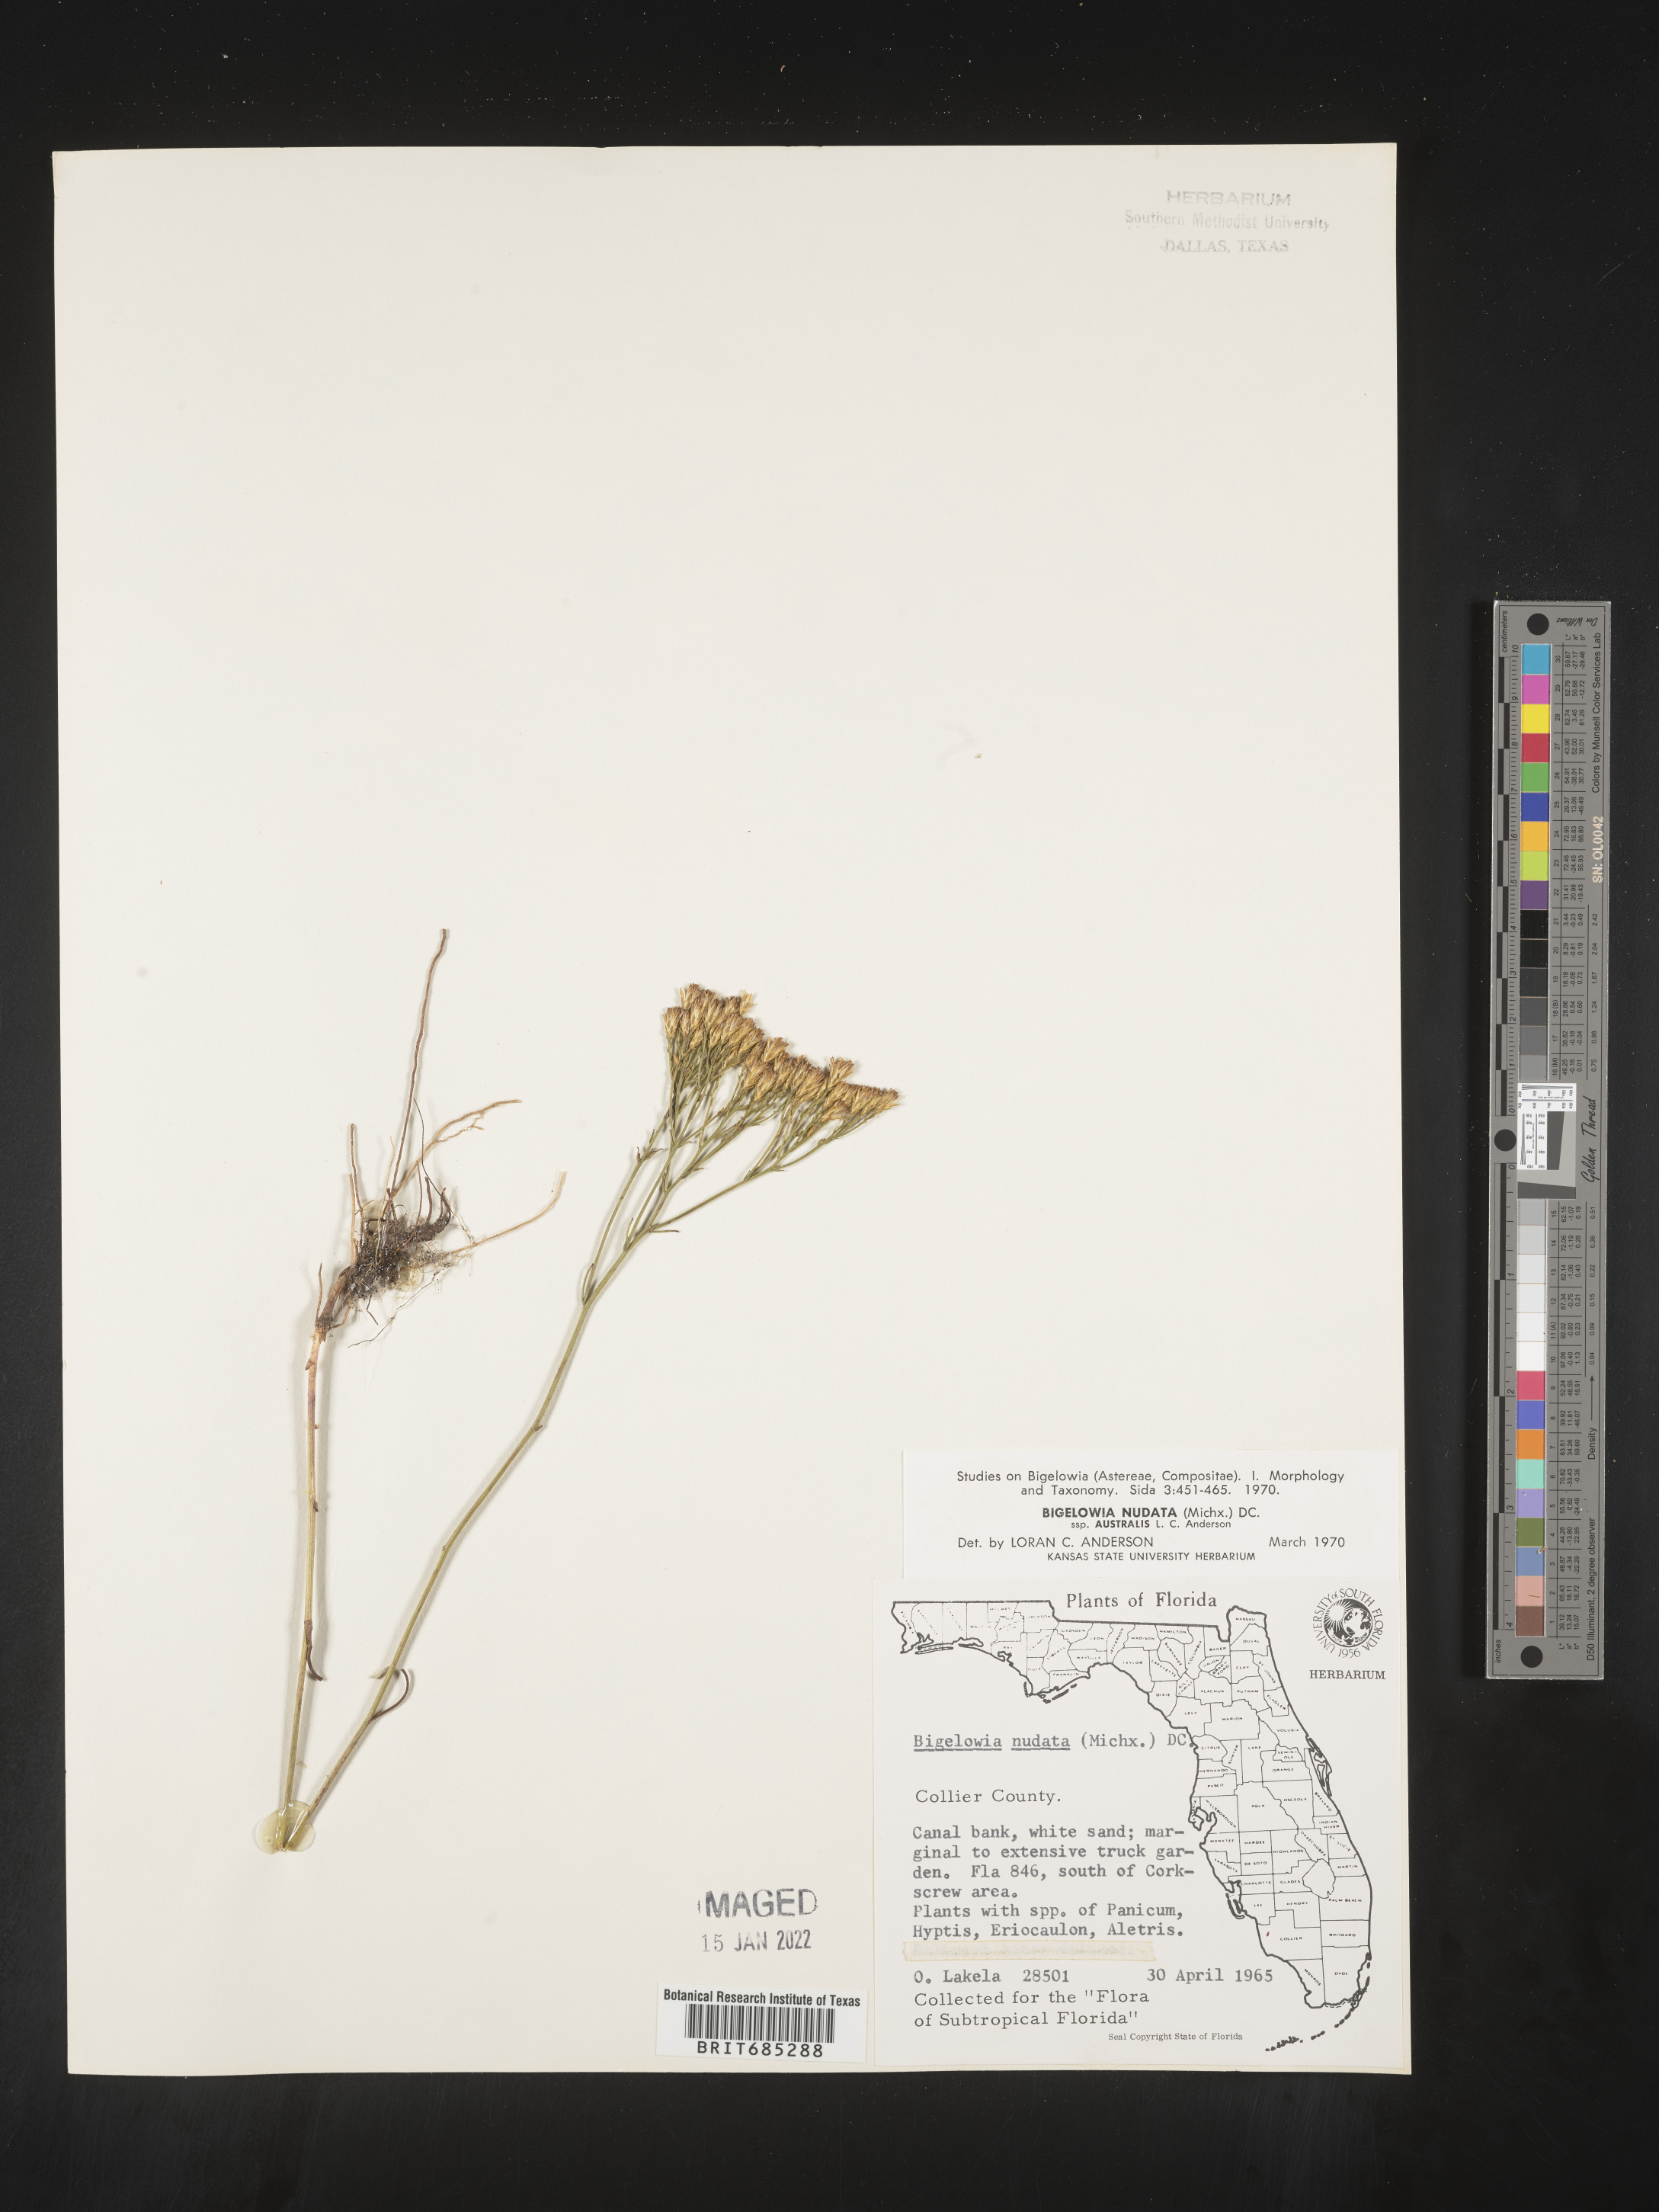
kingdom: Plantae
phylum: Tracheophyta
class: Magnoliopsida
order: Asterales
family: Asteraceae
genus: Bigelowia
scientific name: Bigelowia nudata
